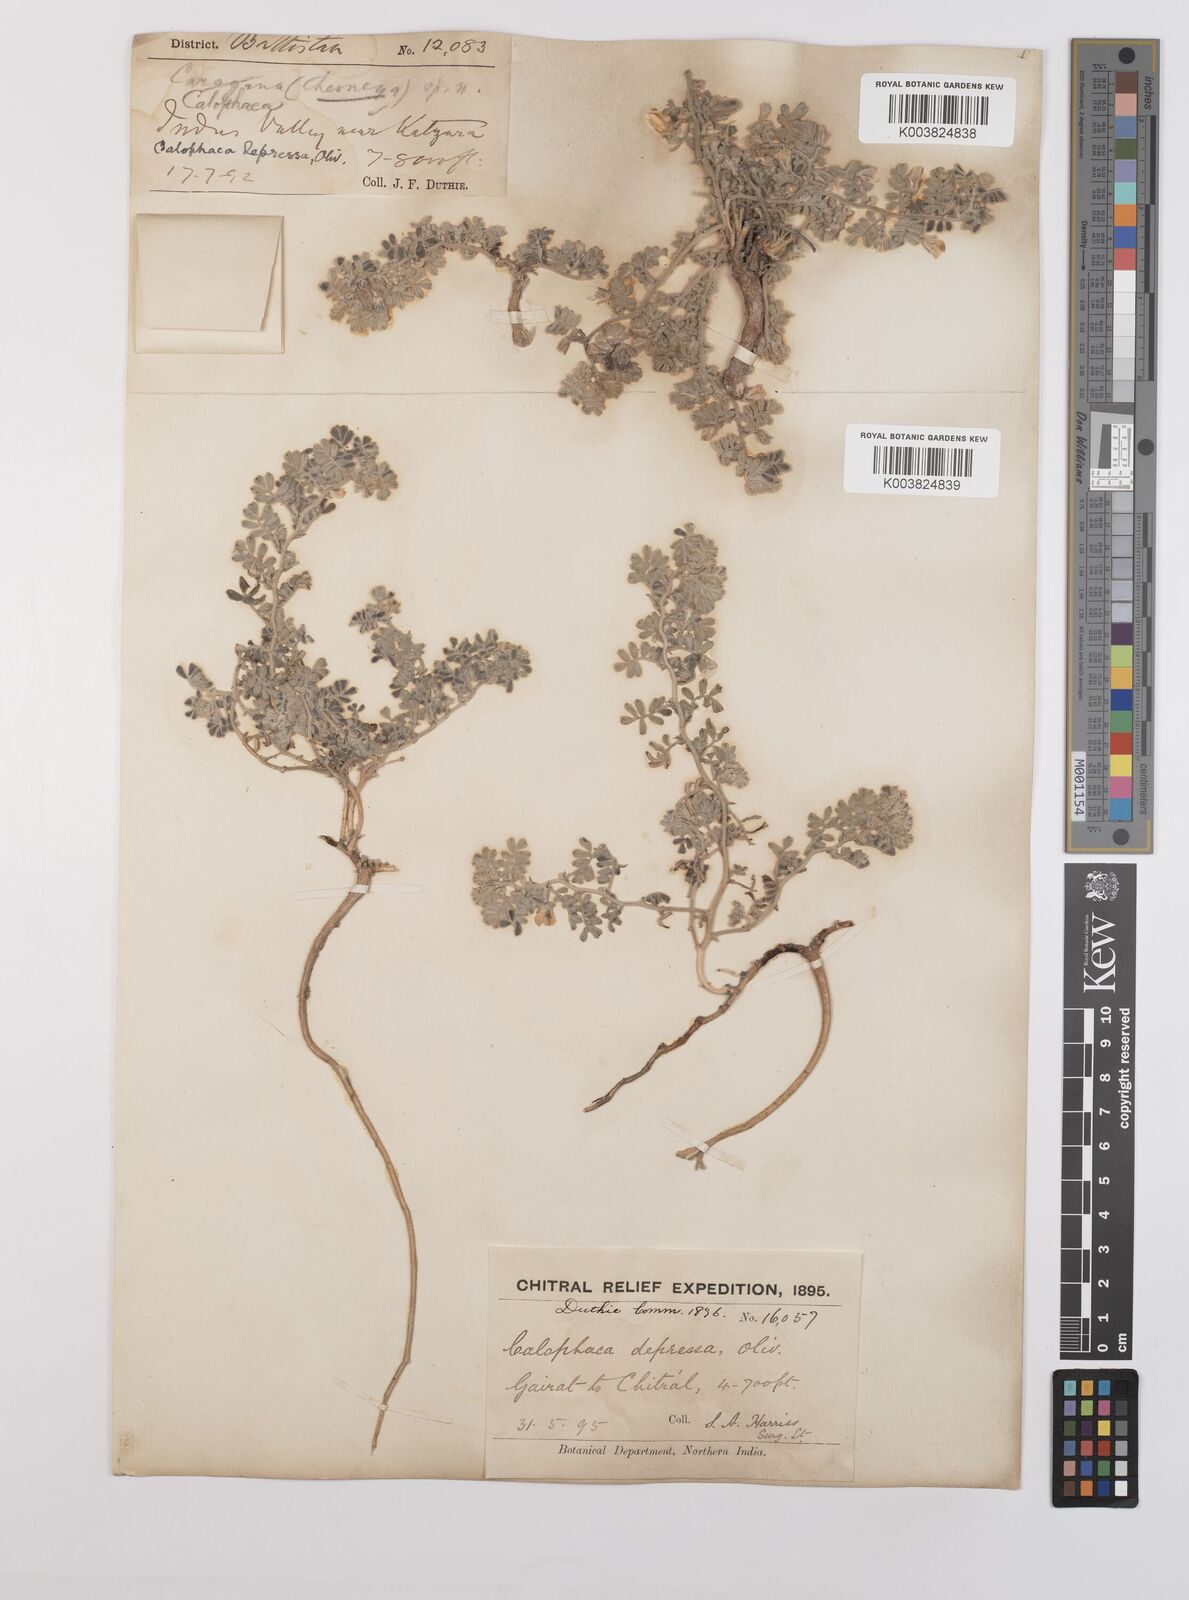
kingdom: Plantae
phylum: Tracheophyta
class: Magnoliopsida
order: Fabales
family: Fabaceae
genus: Chesneya
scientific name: Chesneya depressa
